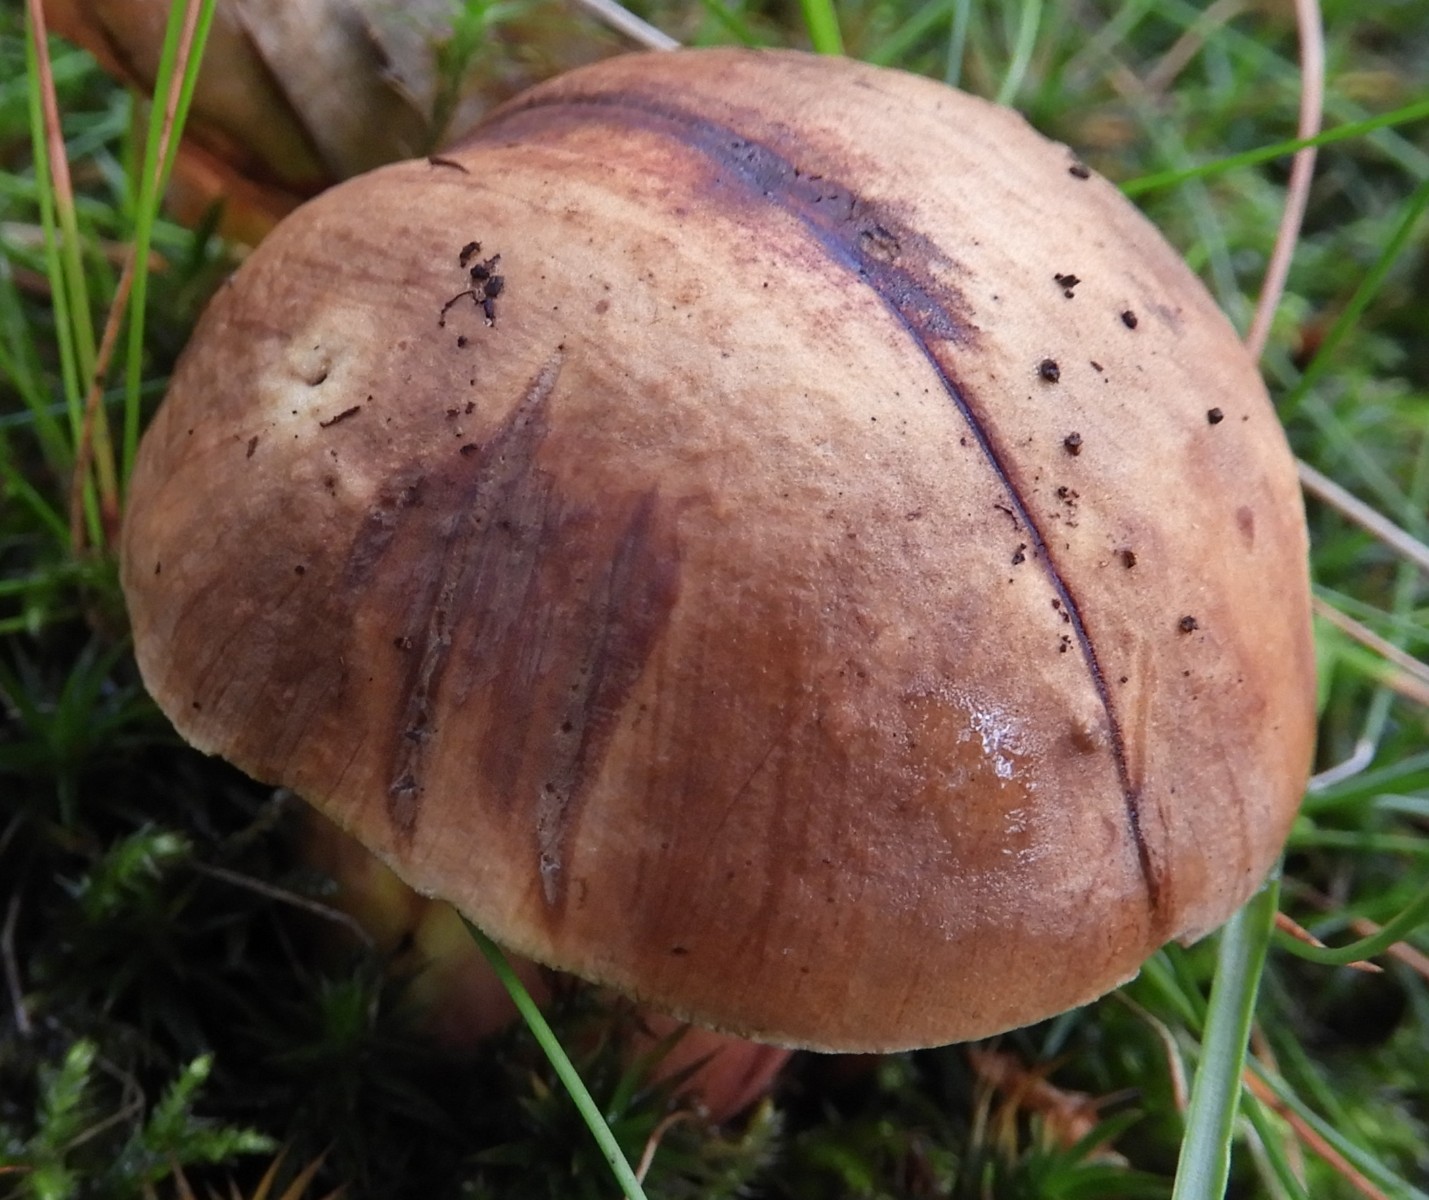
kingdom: Fungi
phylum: Basidiomycota
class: Agaricomycetes
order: Boletales
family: Boletaceae
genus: Neoboletus
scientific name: Neoboletus
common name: indigorørhat
